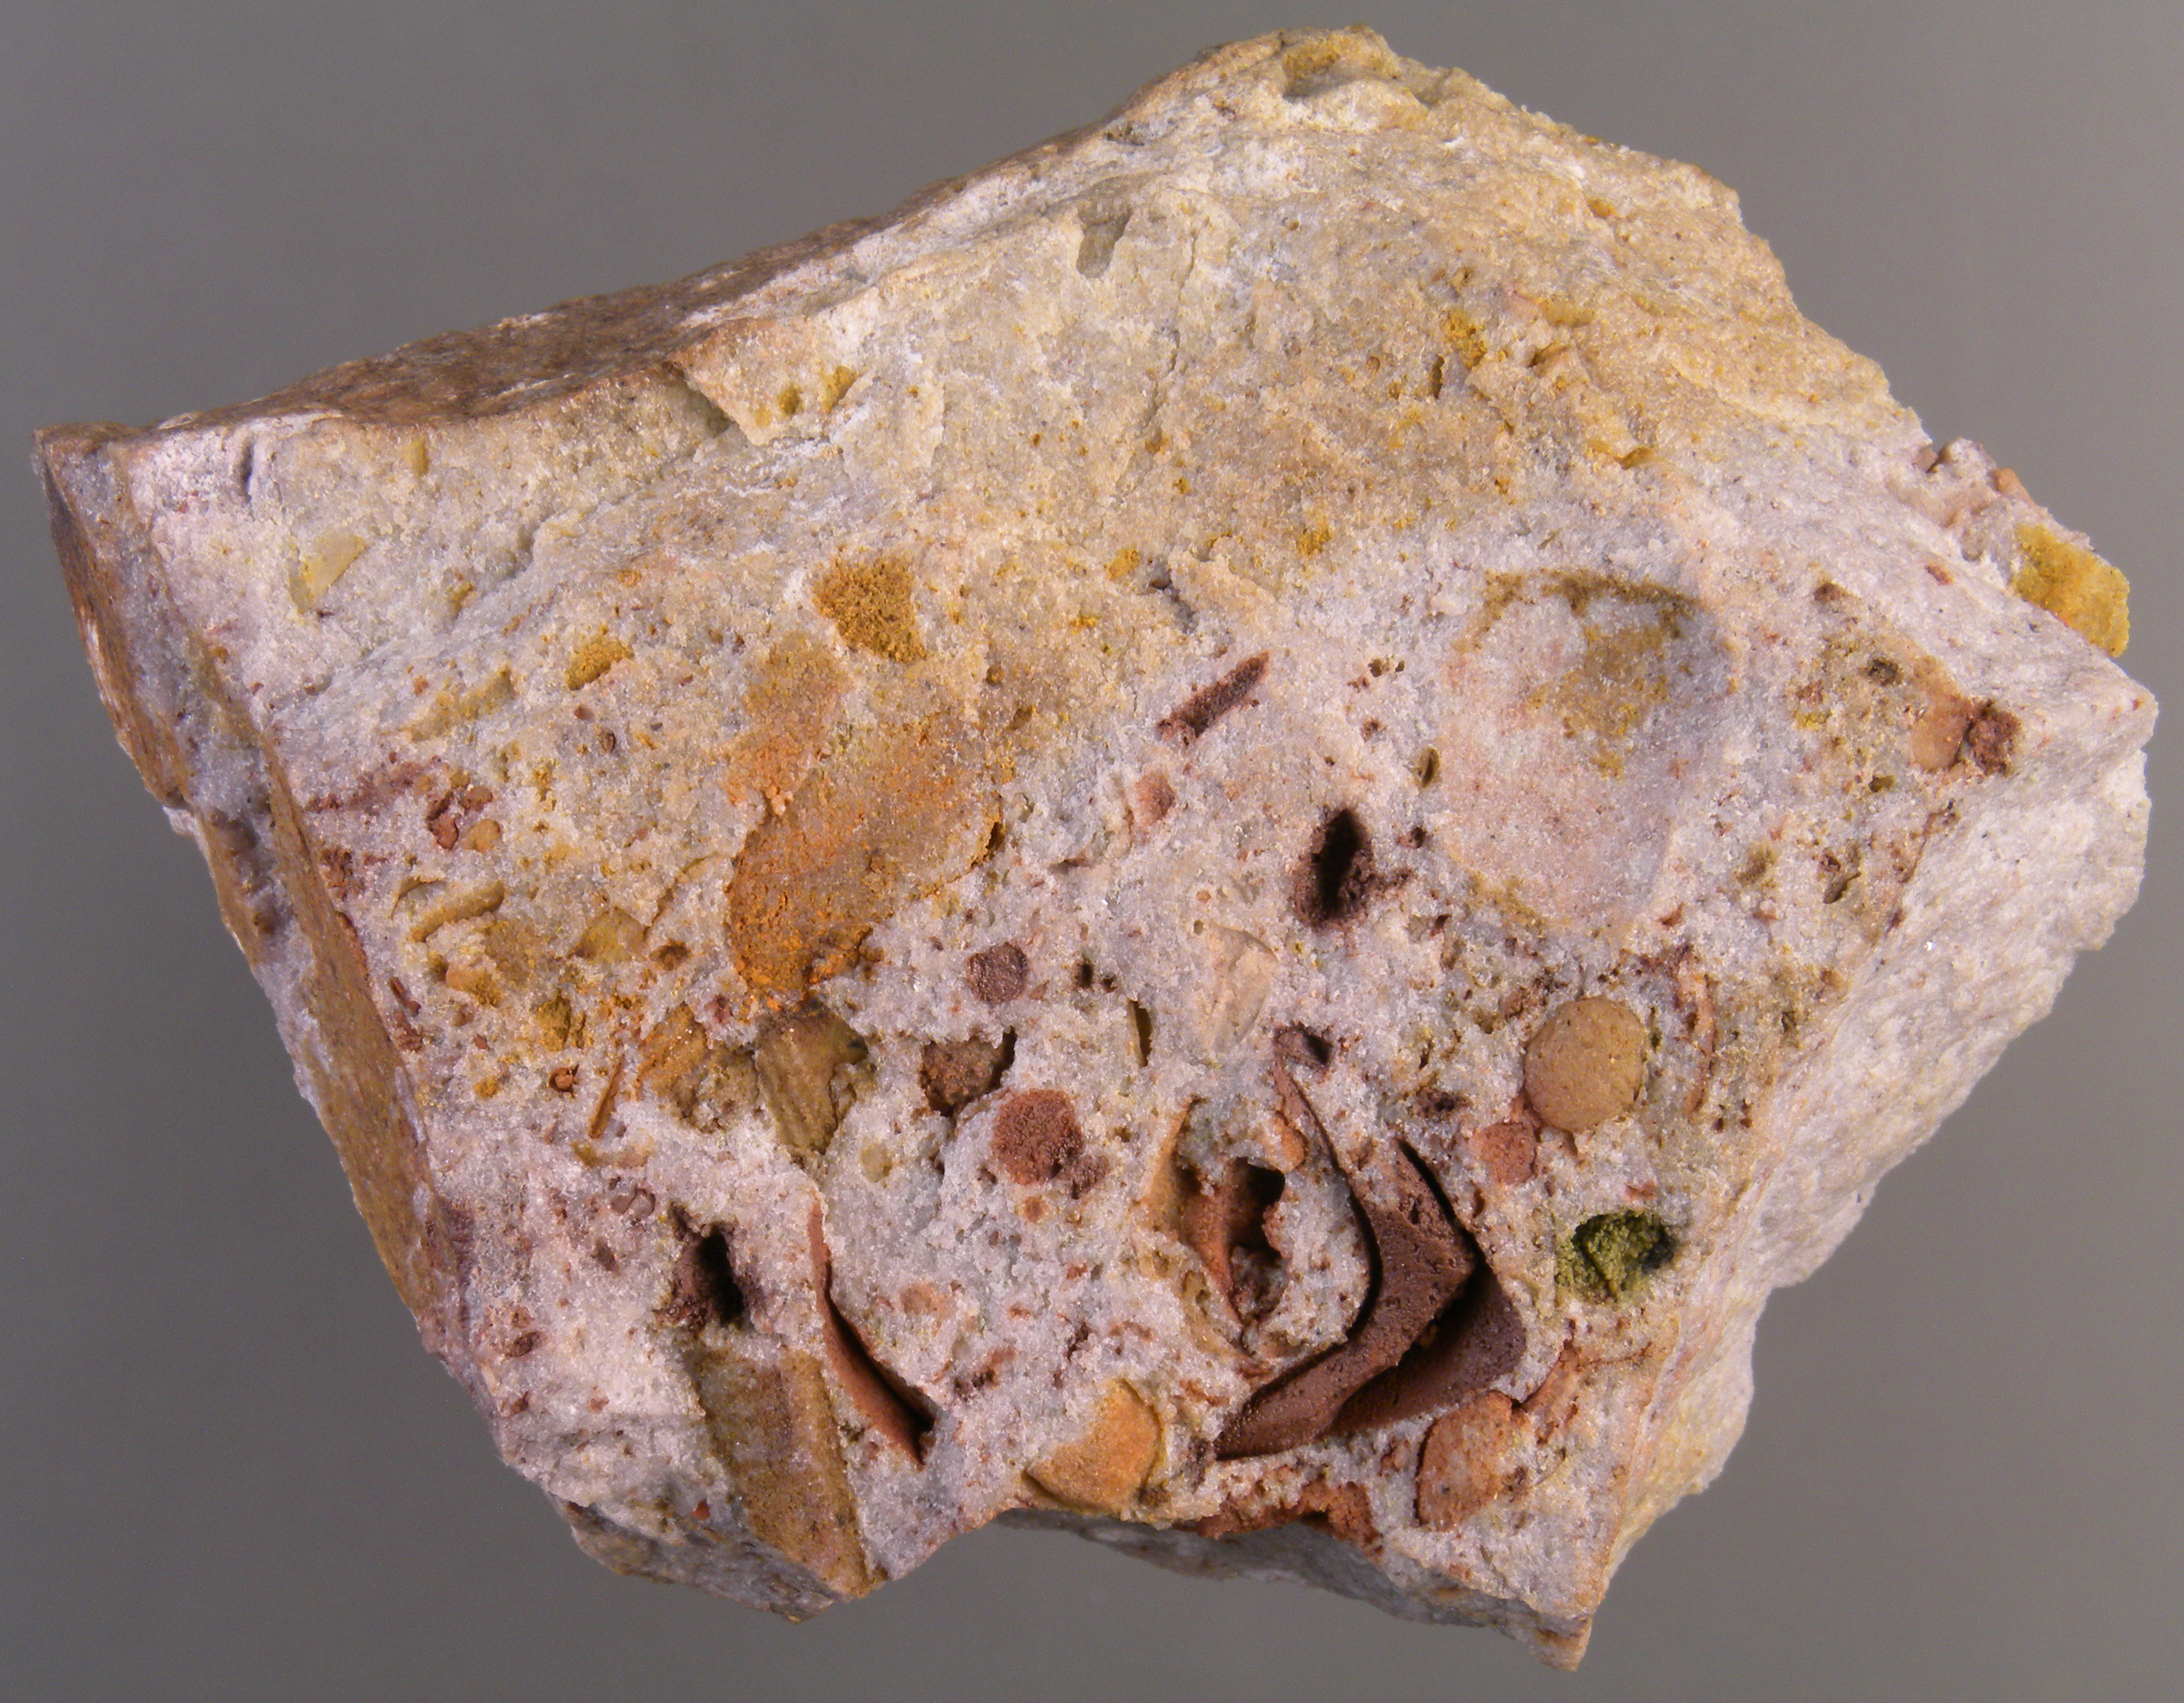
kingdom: Animalia
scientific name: Animalia
